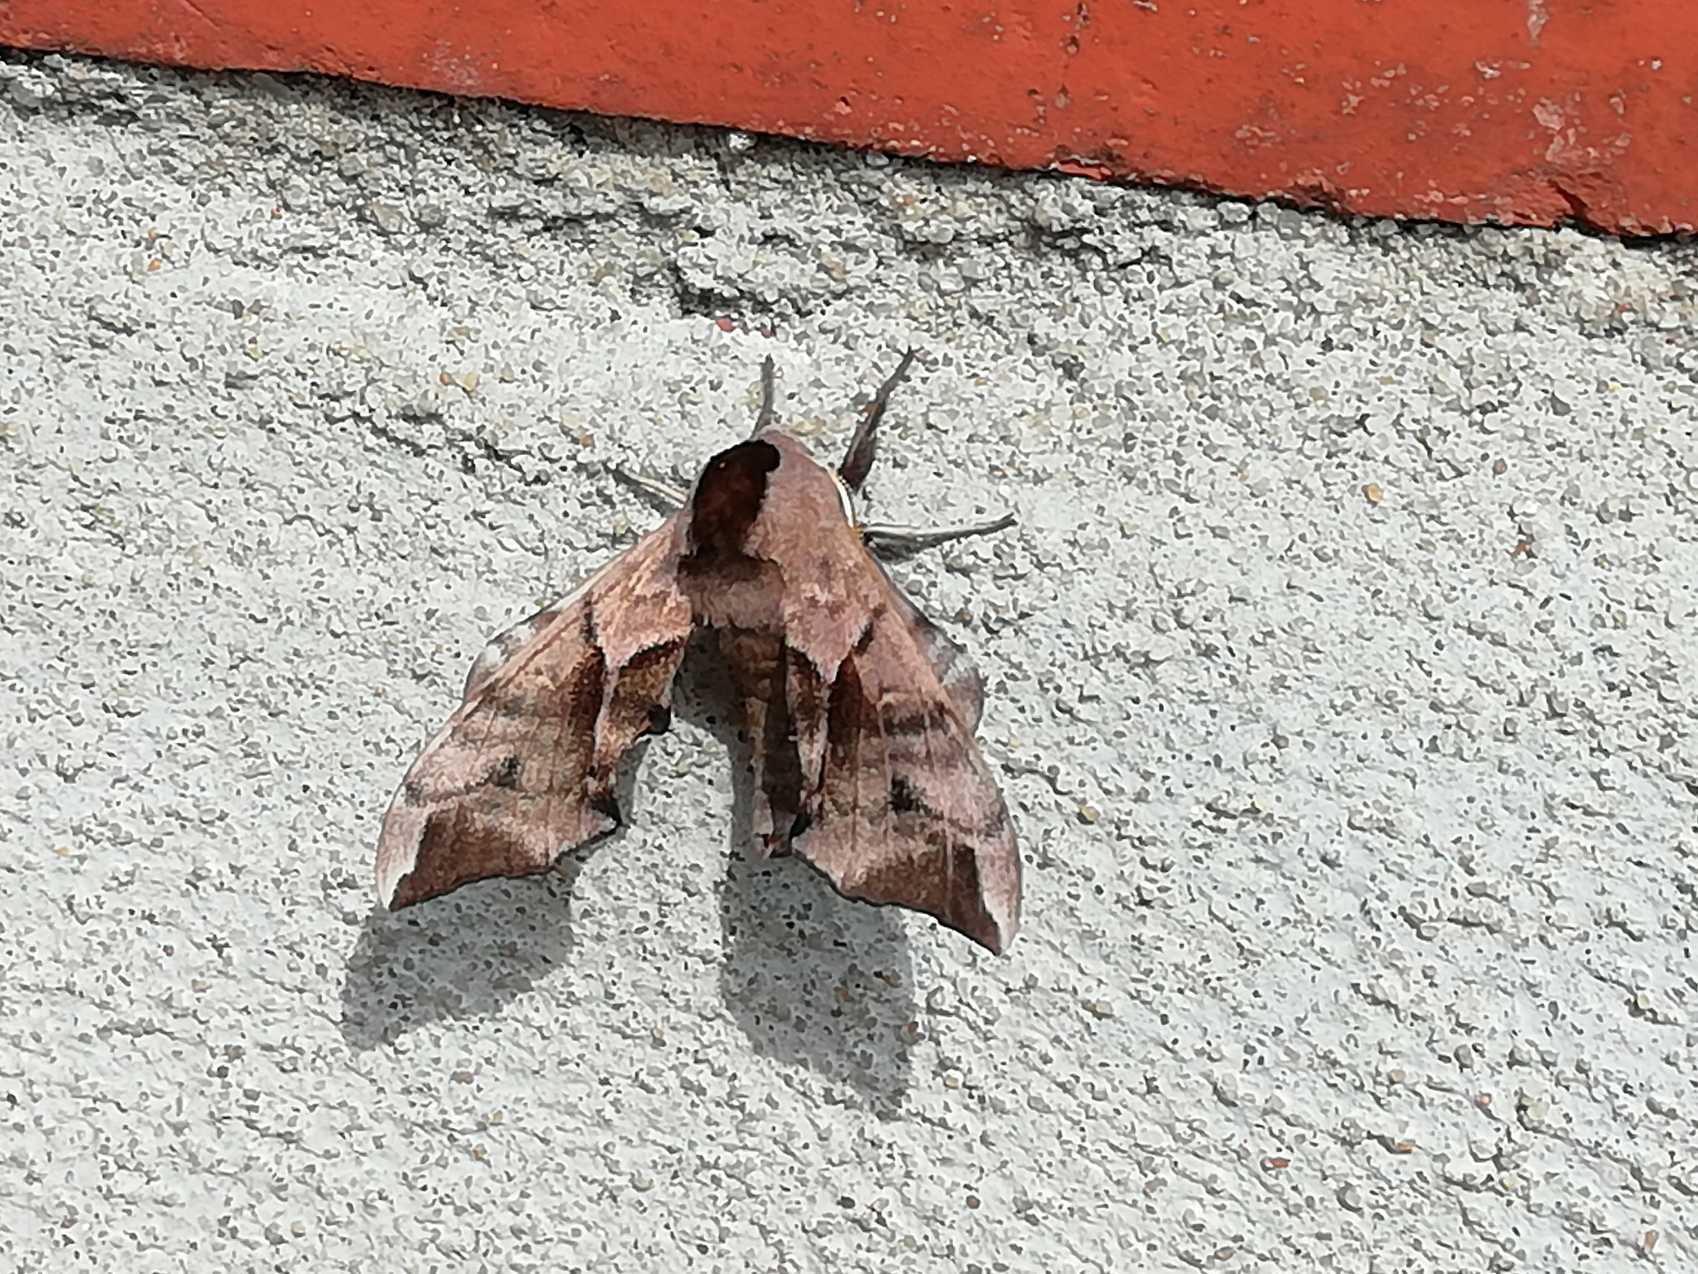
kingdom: Animalia
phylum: Arthropoda
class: Insecta
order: Lepidoptera
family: Sphingidae
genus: Smerinthus
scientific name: Smerinthus ocellata
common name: Aftenpåfugleøje
